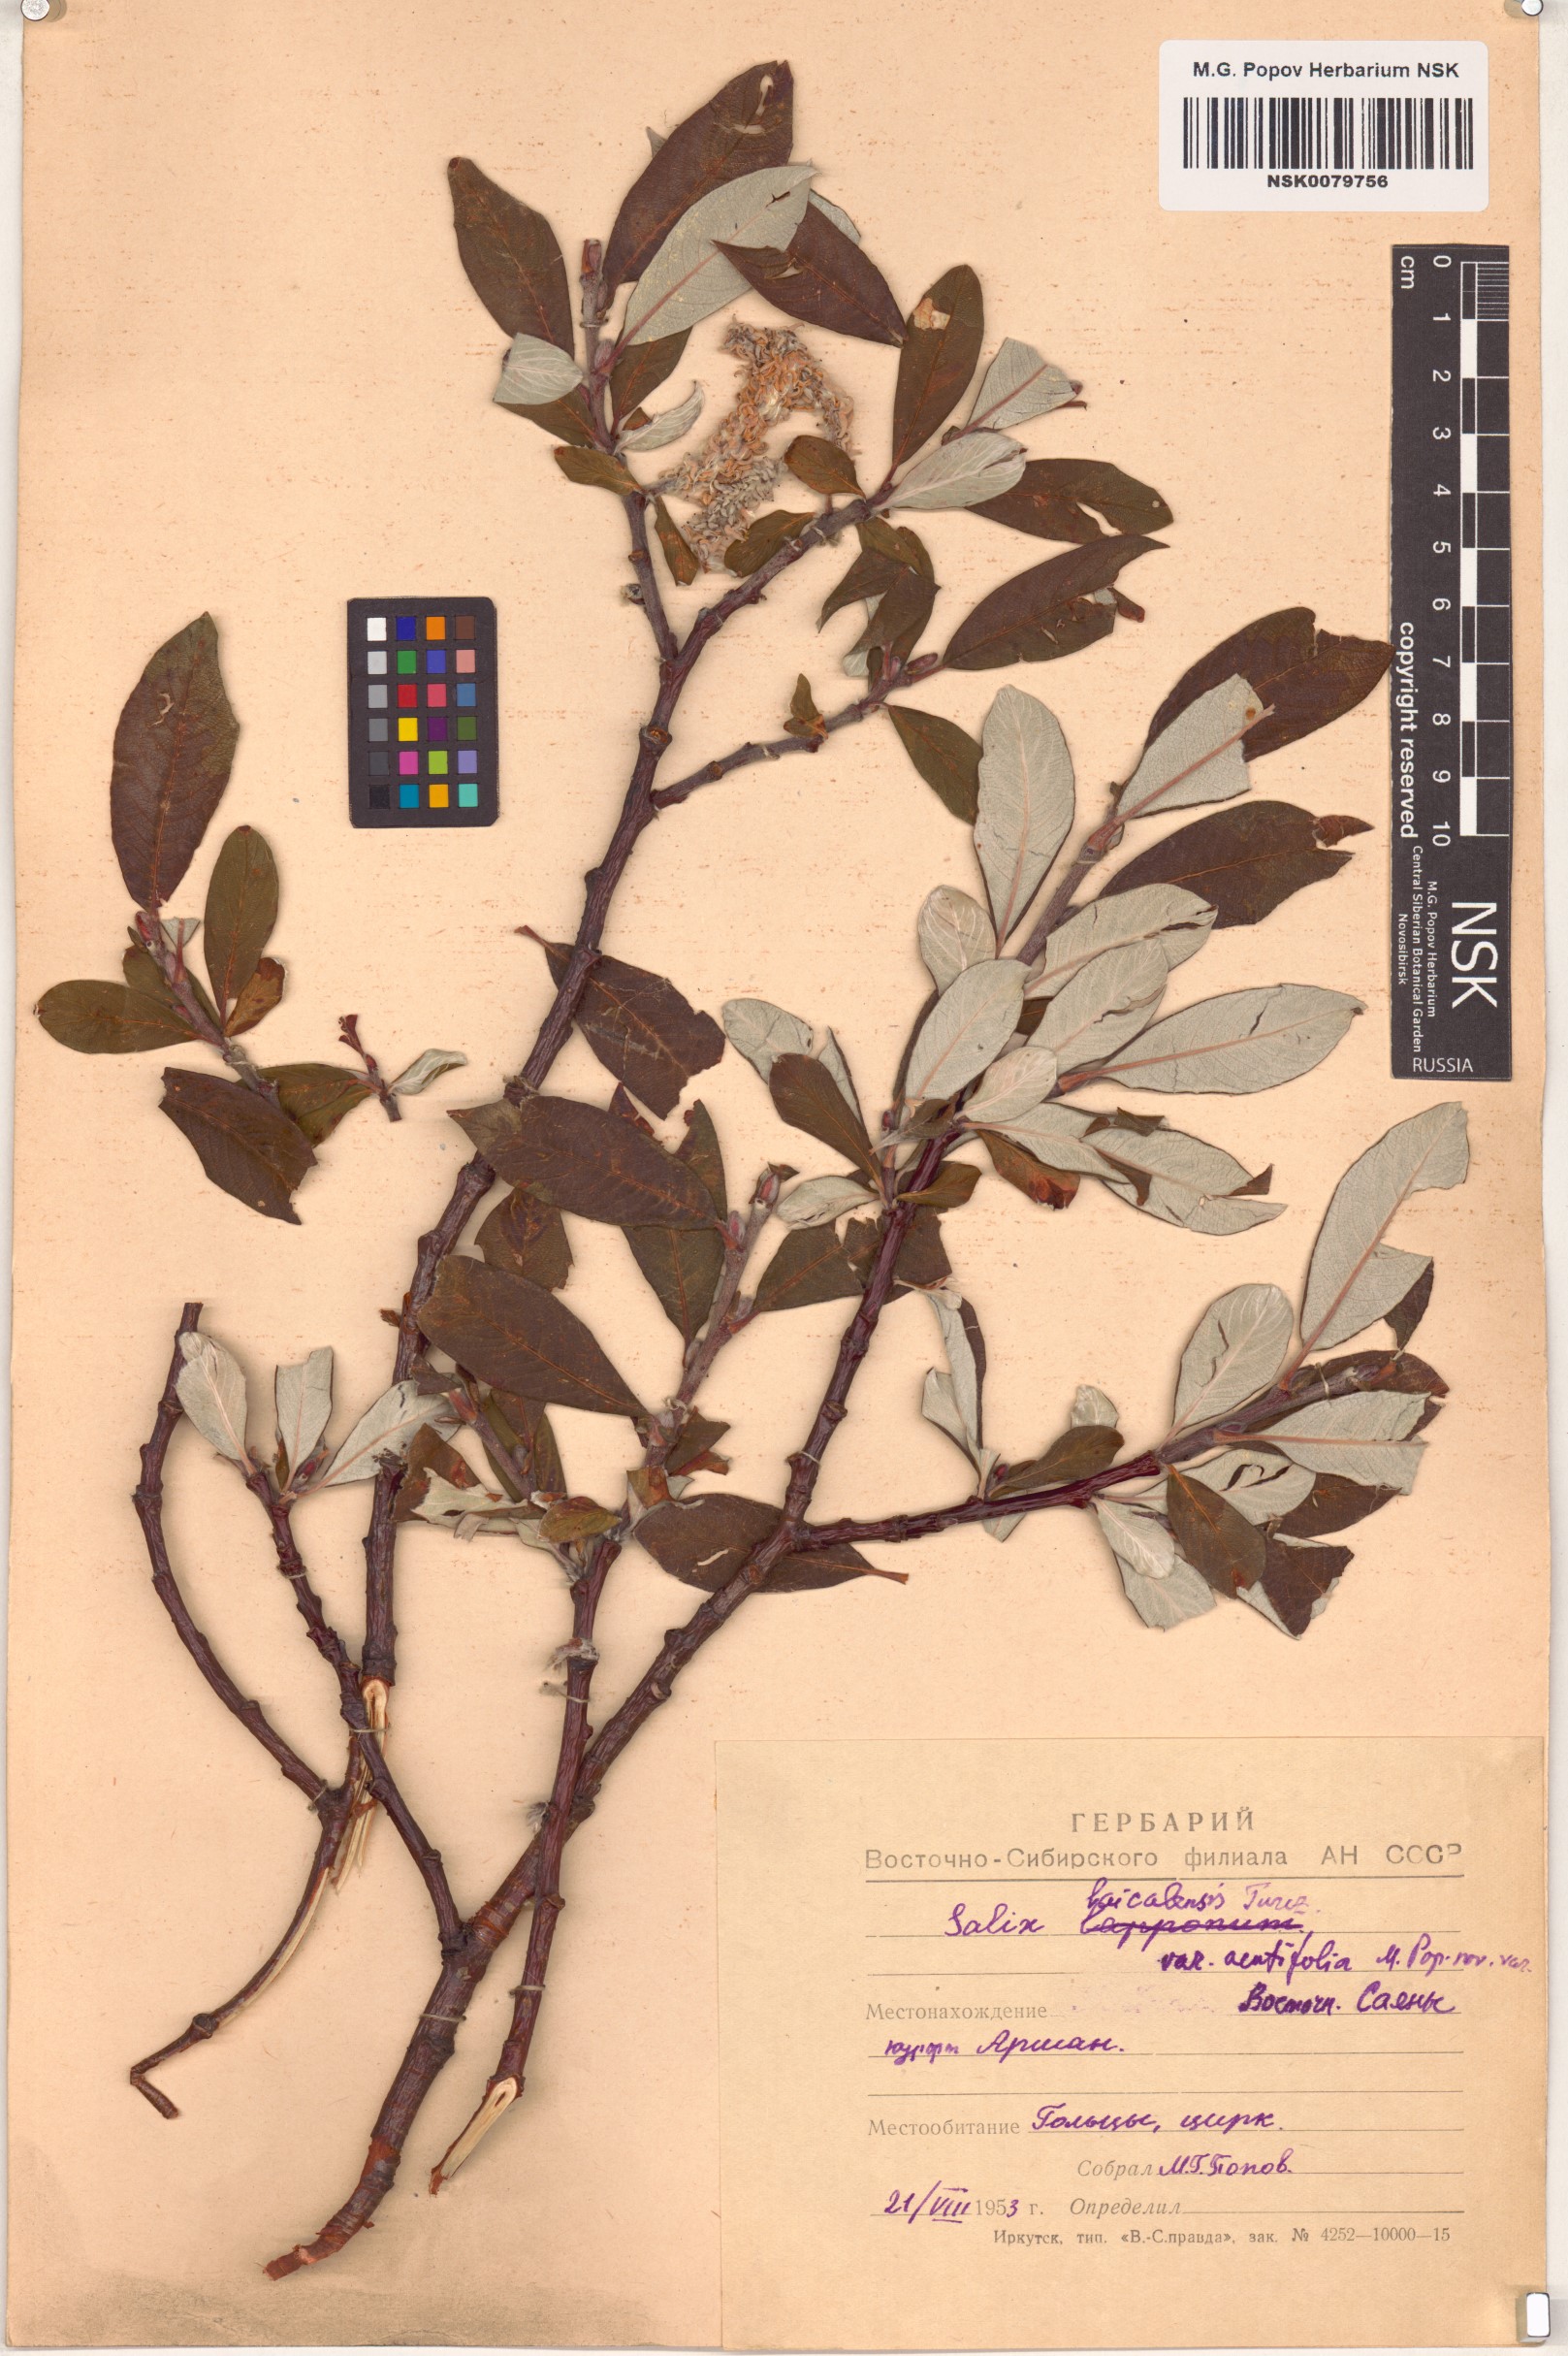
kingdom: Plantae
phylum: Tracheophyta
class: Magnoliopsida
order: Malpighiales
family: Salicaceae
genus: Salix
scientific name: Salix krylovii
